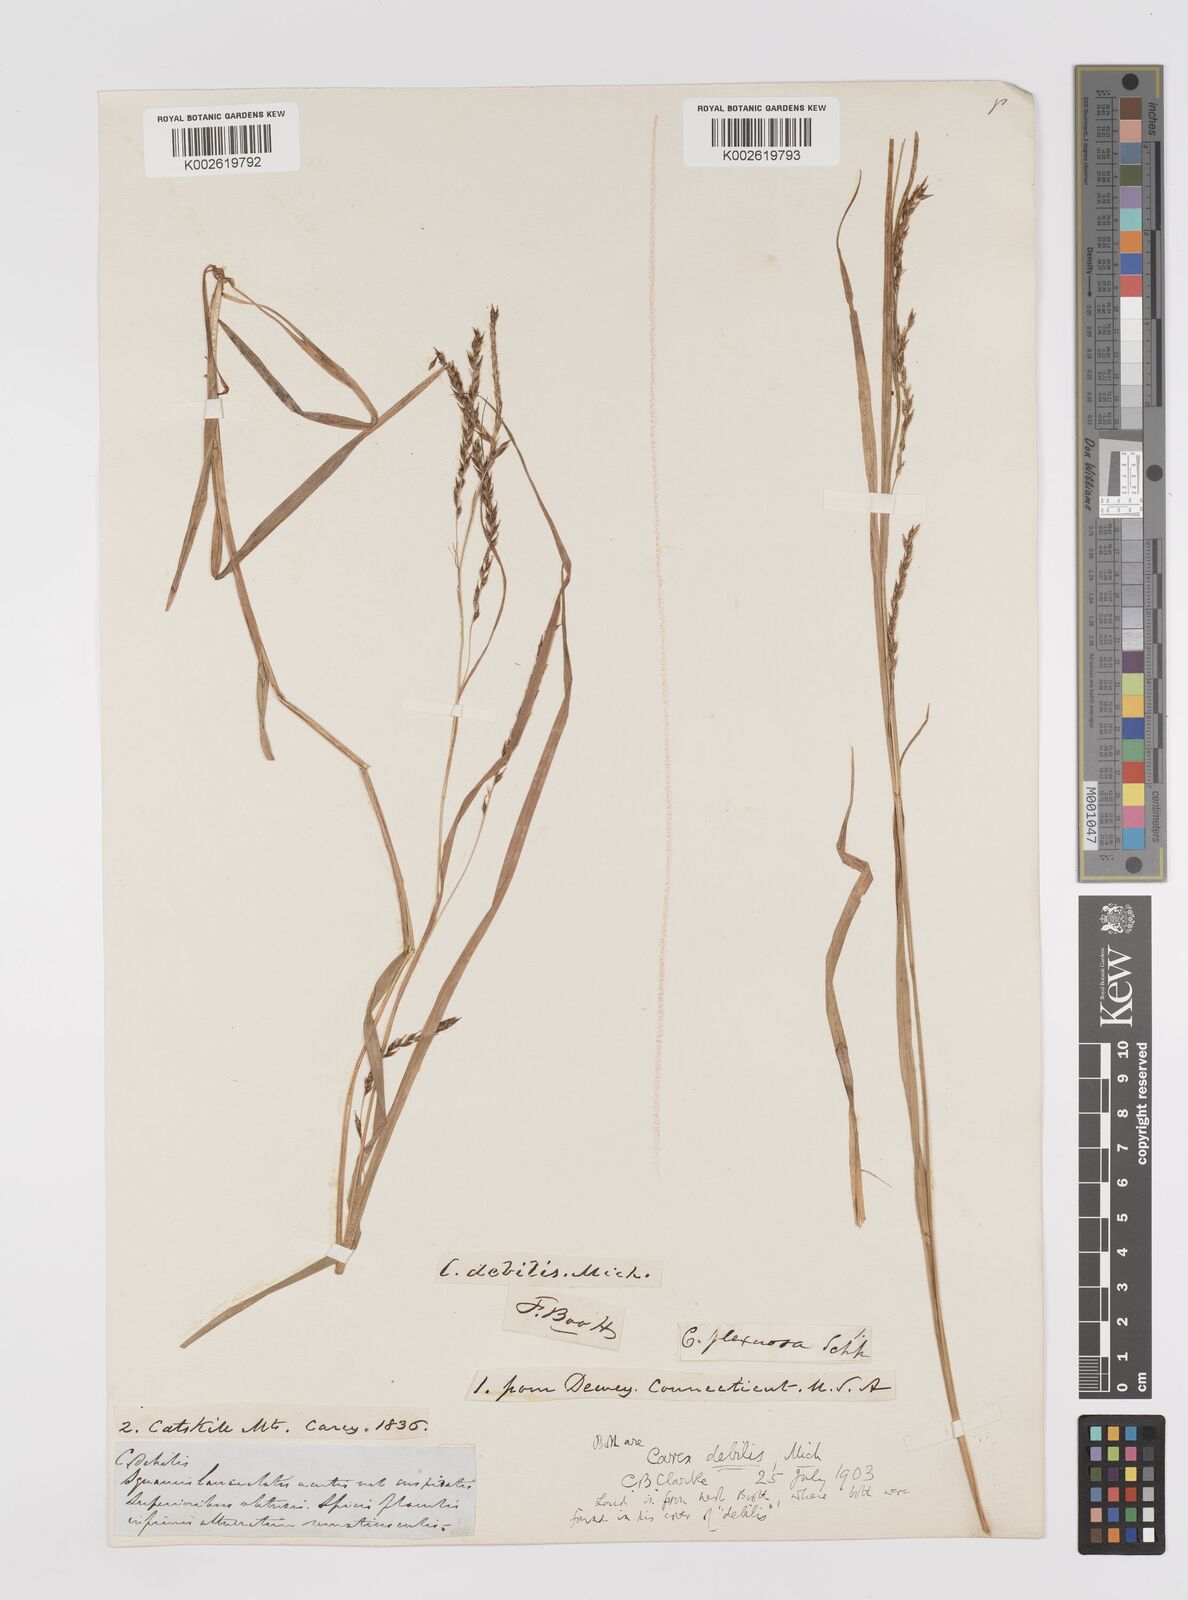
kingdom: Plantae
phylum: Tracheophyta
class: Liliopsida
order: Poales
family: Cyperaceae
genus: Carex
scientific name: Carex debilis
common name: White-edge sedge
